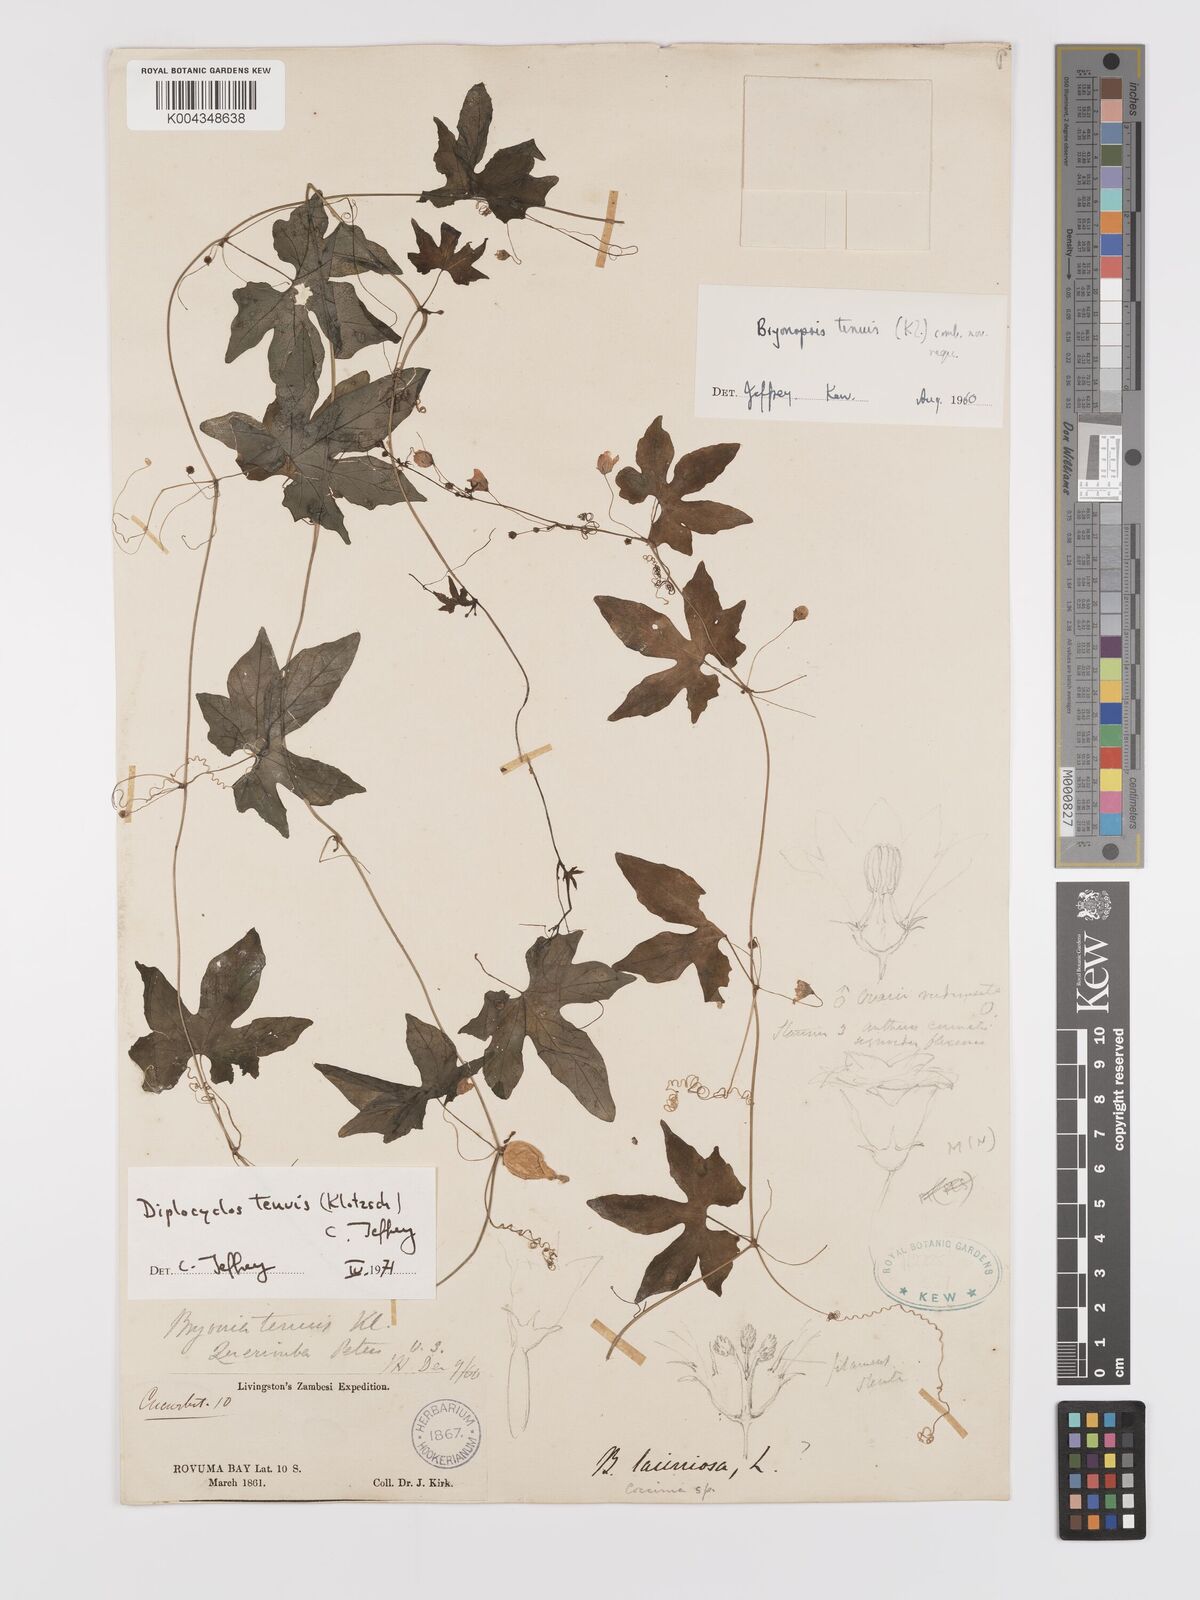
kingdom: Plantae
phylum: Tracheophyta
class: Magnoliopsida
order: Cucurbitales
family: Cucurbitaceae
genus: Diplocyclos
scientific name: Diplocyclos tenuis
